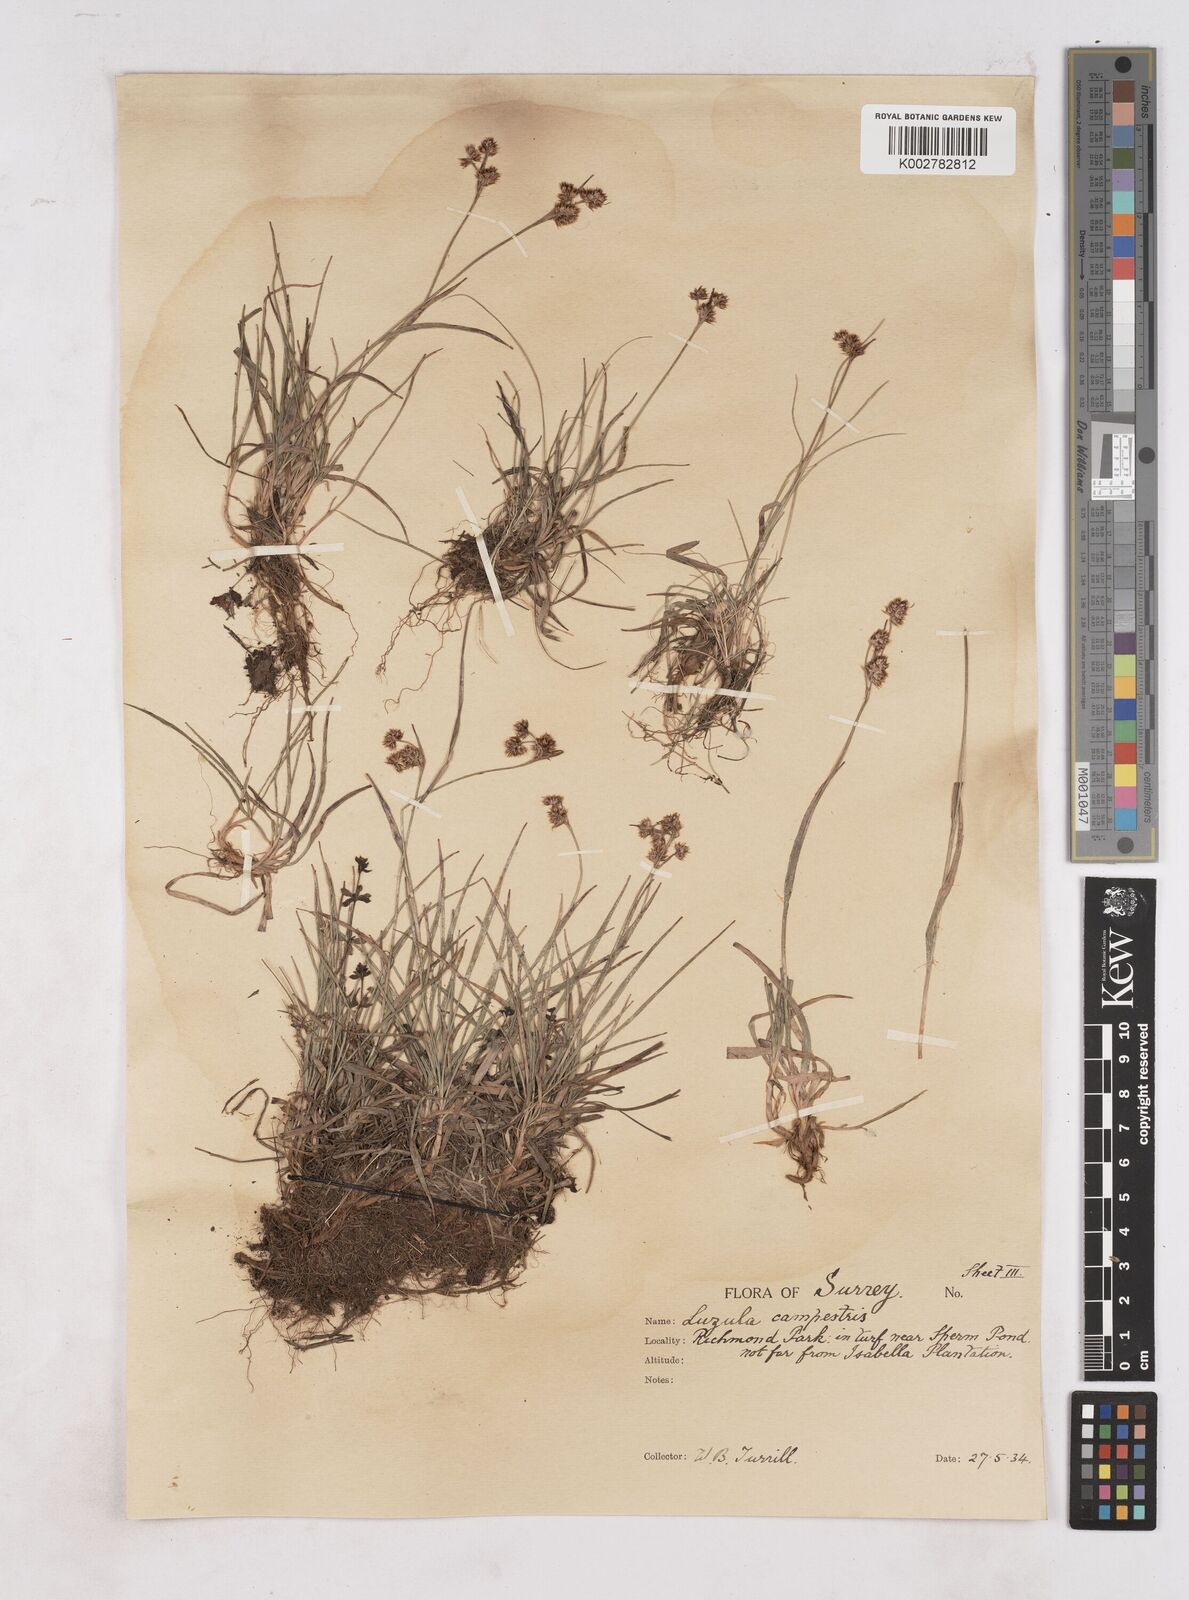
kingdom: Plantae
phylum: Tracheophyta
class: Liliopsida
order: Poales
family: Juncaceae
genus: Luzula
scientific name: Luzula campestris
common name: Field wood-rush
